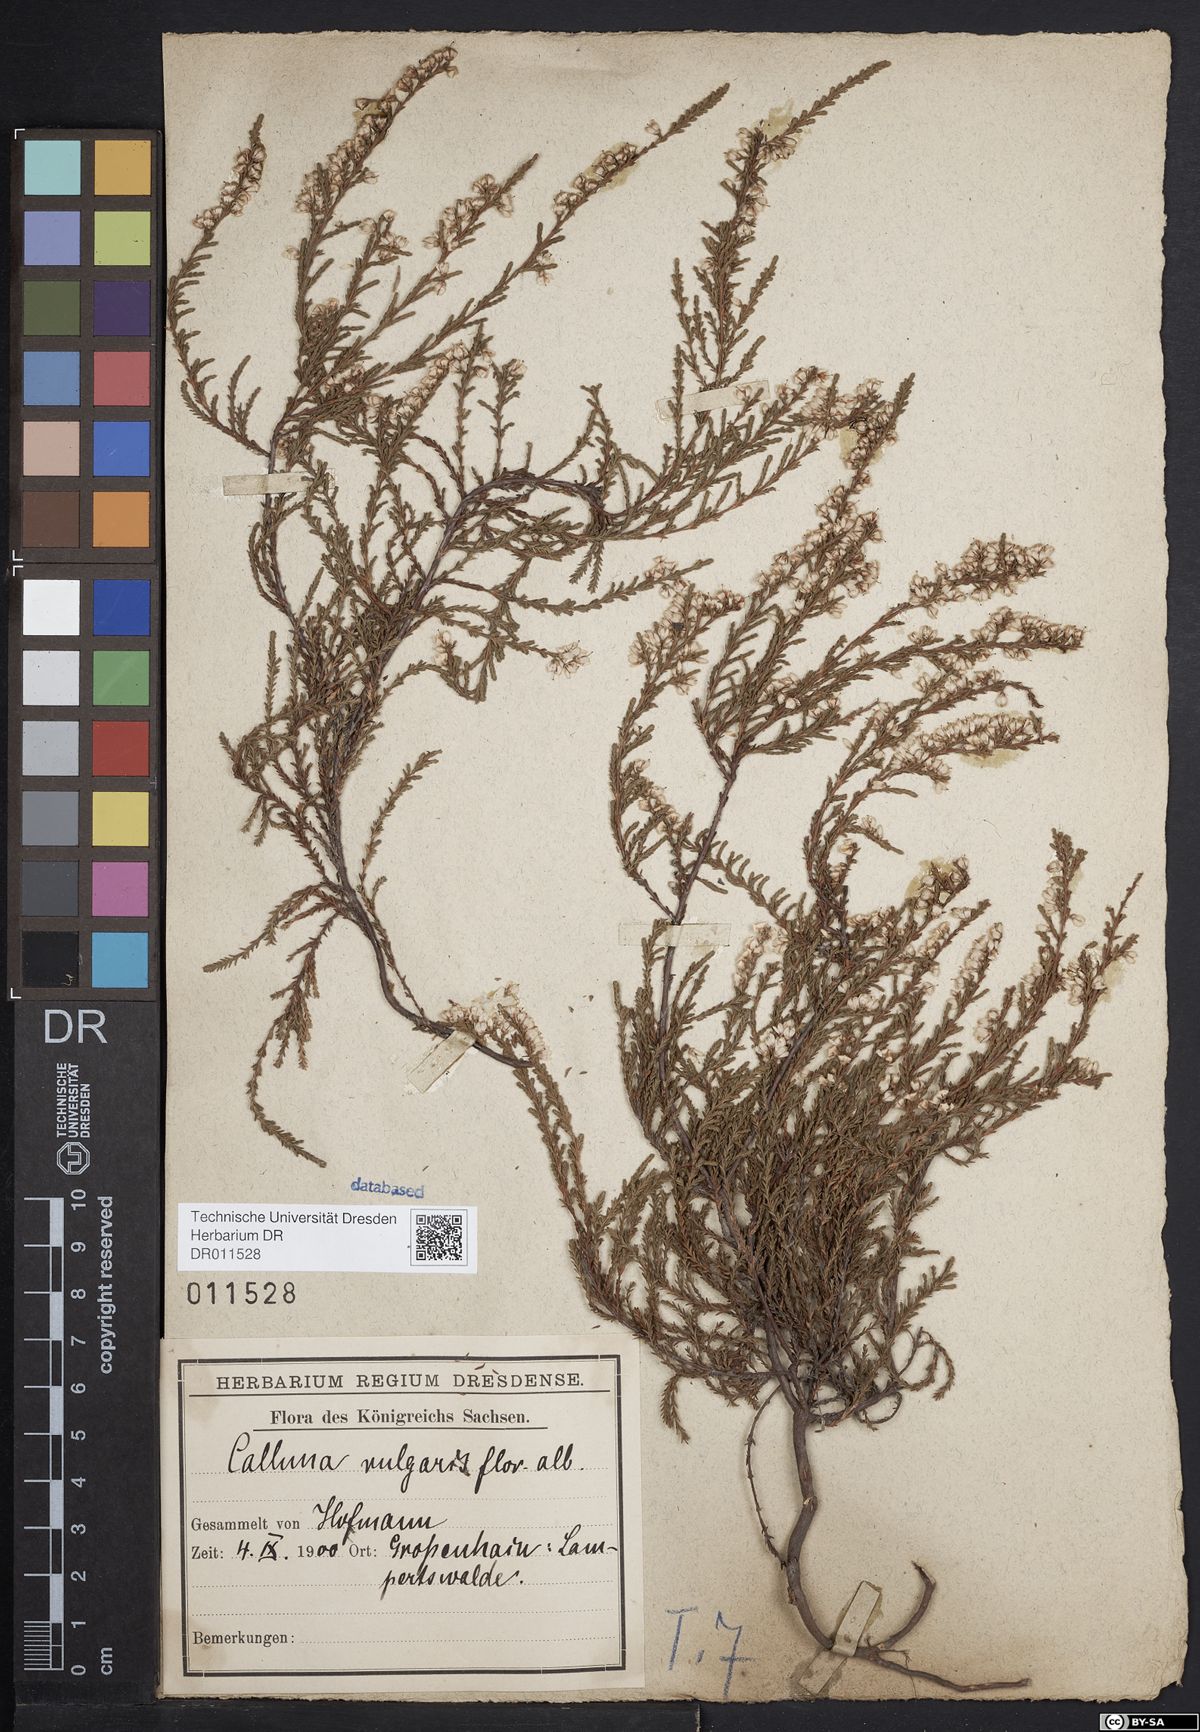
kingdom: Plantae
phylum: Tracheophyta
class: Magnoliopsida
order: Ericales
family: Ericaceae
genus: Calluna
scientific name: Calluna vulgaris
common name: Heather
